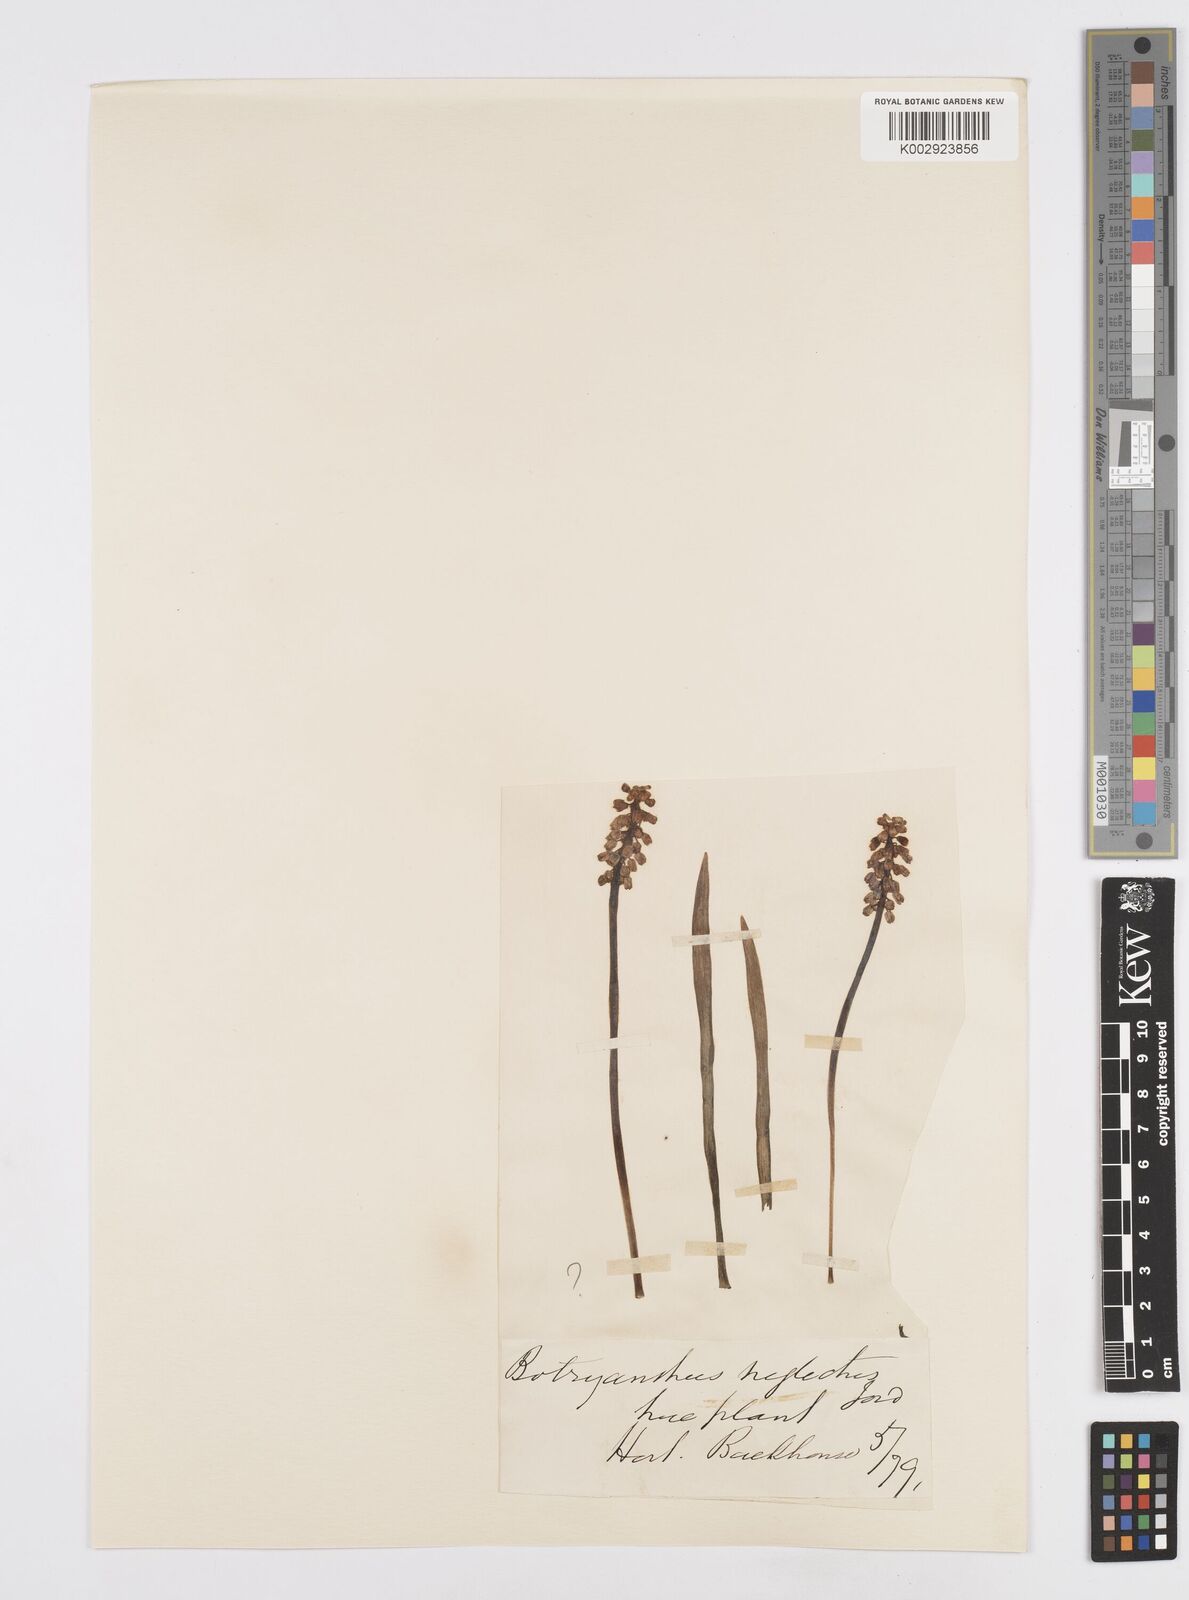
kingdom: Plantae
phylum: Tracheophyta
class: Liliopsida
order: Asparagales
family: Asparagaceae
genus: Muscari
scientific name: Muscari neglectum
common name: Grape-hyacinth
